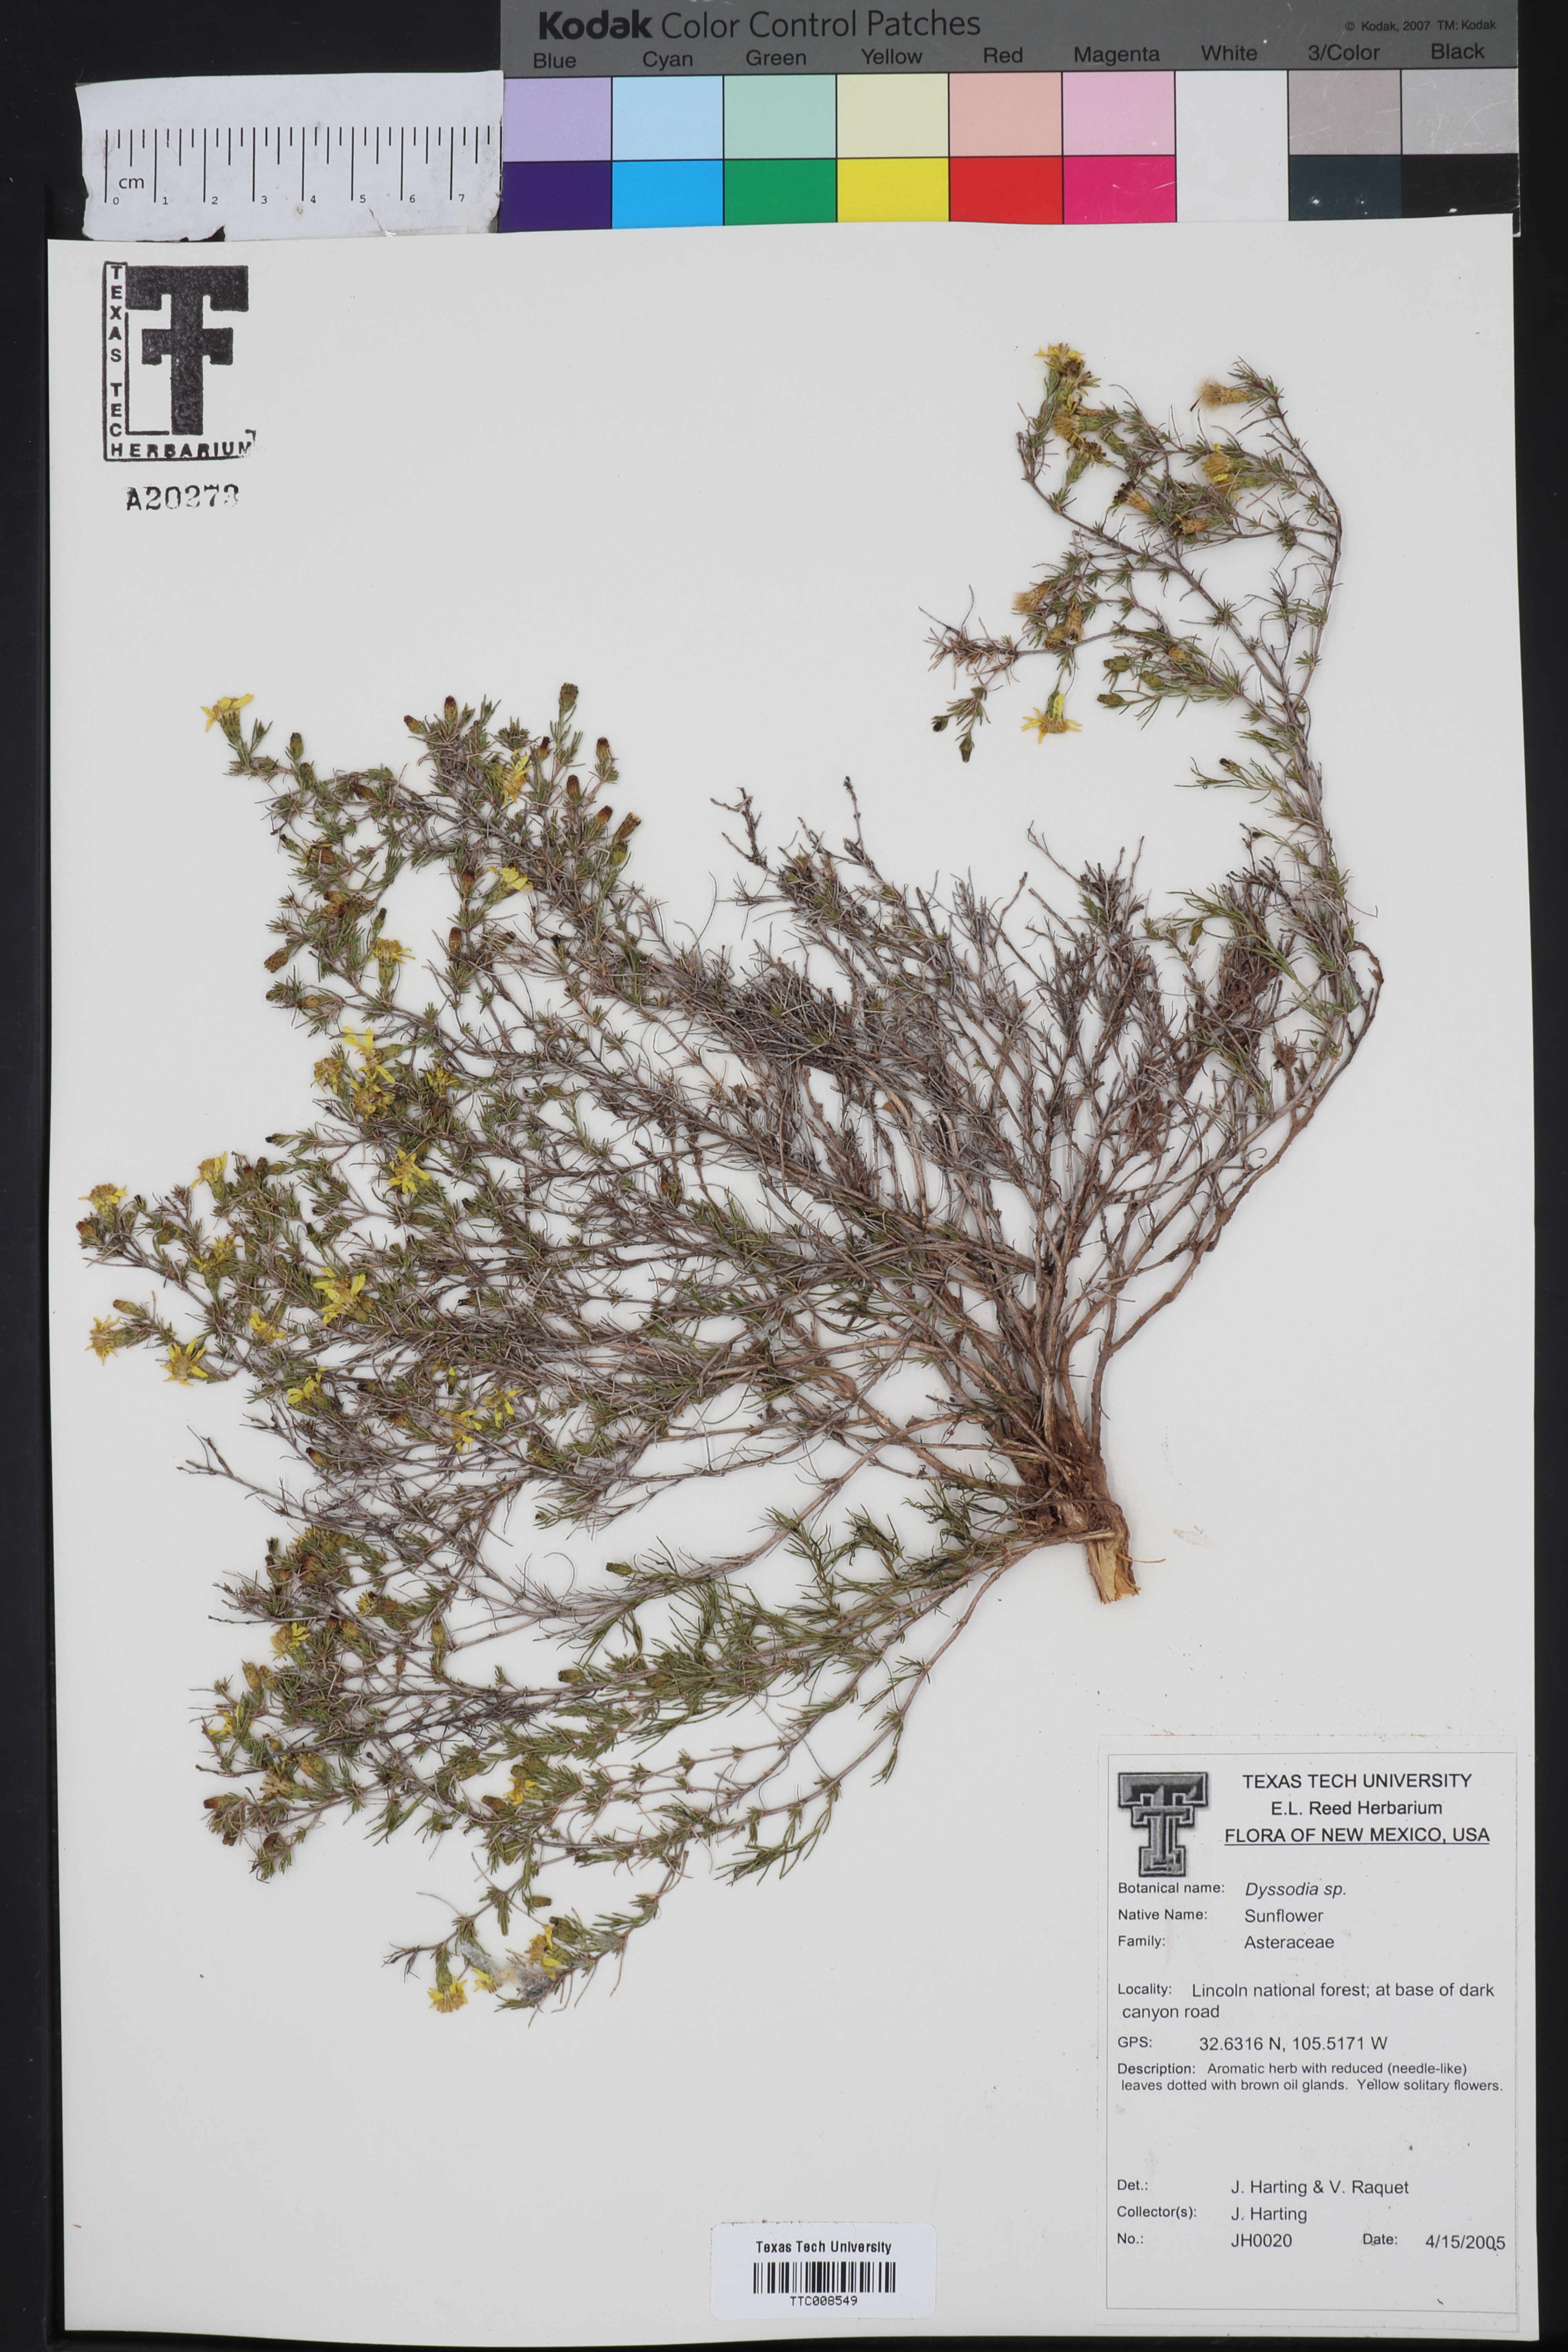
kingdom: Plantae
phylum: Tracheophyta
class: Magnoliopsida
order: Asterales
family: Asteraceae
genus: Dyssodia
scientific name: Dyssodia
